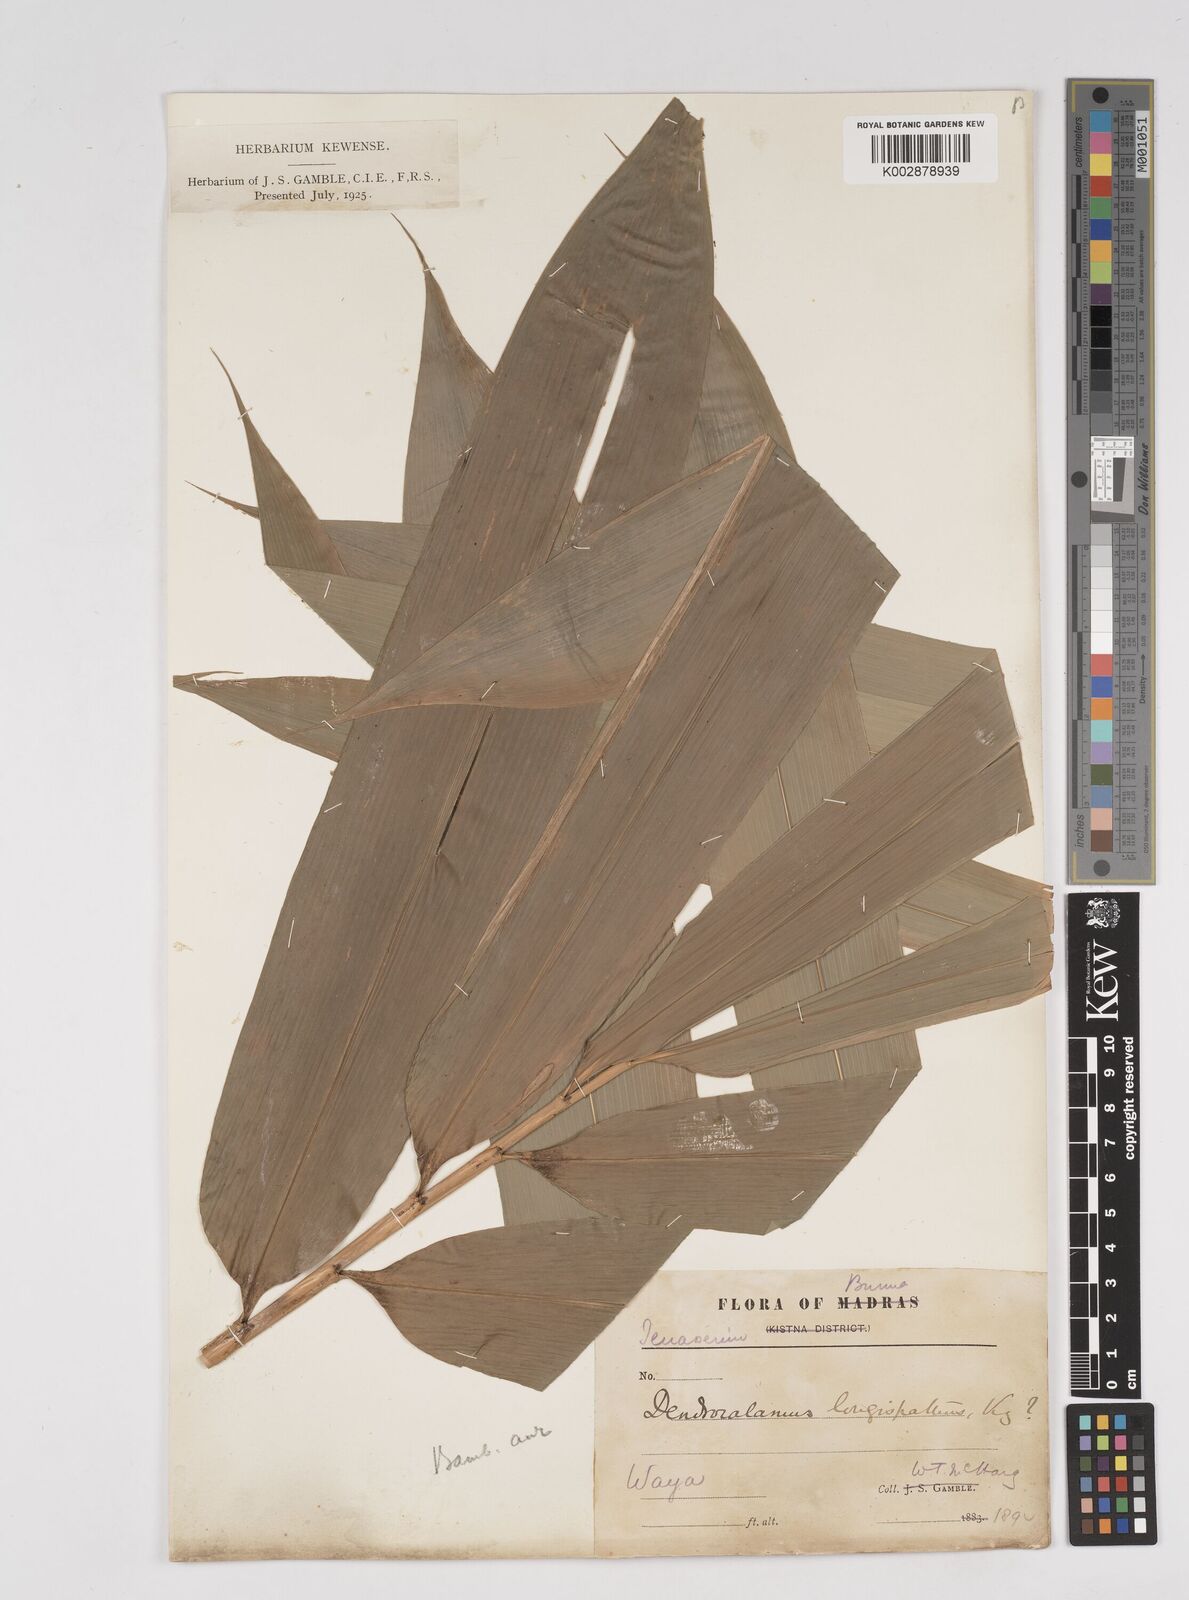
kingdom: Plantae
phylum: Tracheophyta
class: Liliopsida
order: Poales
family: Poaceae
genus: Dendrocalamus
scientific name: Dendrocalamus longispathus
